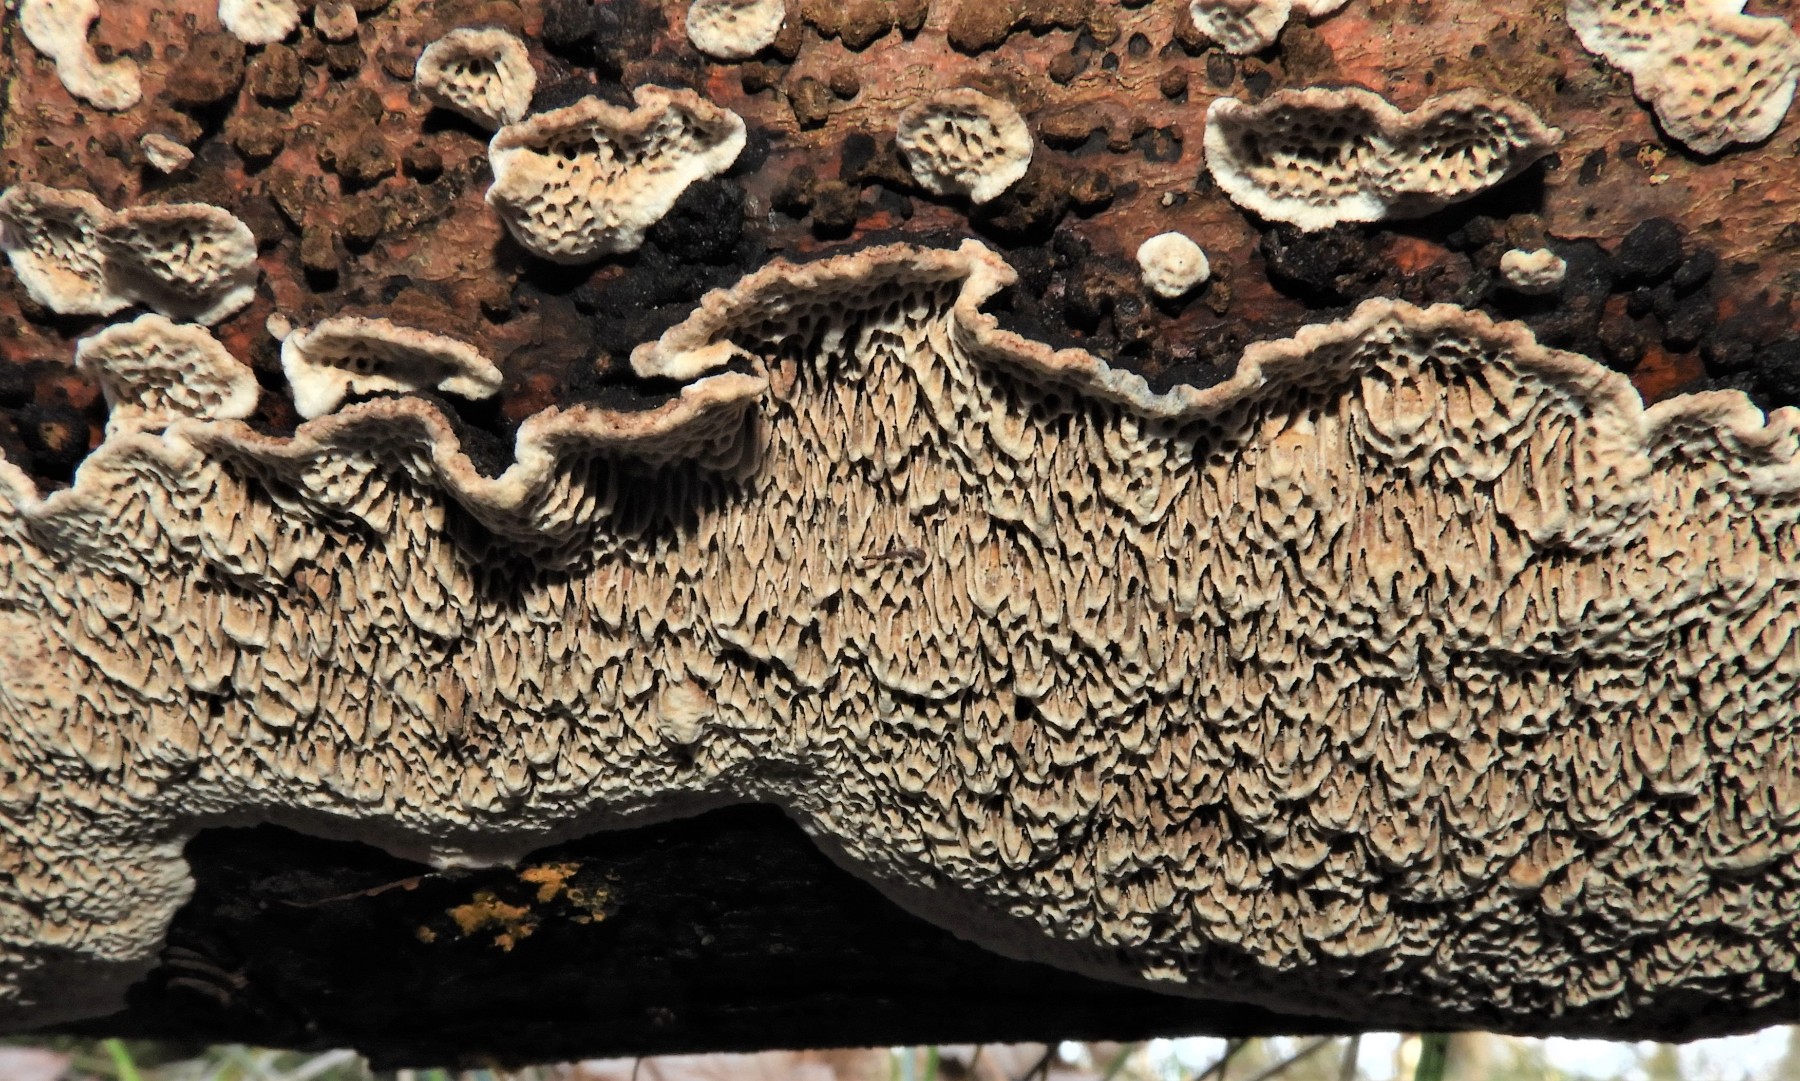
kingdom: Fungi
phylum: Basidiomycota
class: Agaricomycetes
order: Polyporales
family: Polyporaceae
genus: Podofomes
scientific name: Podofomes mollis
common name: blød begporesvamp
